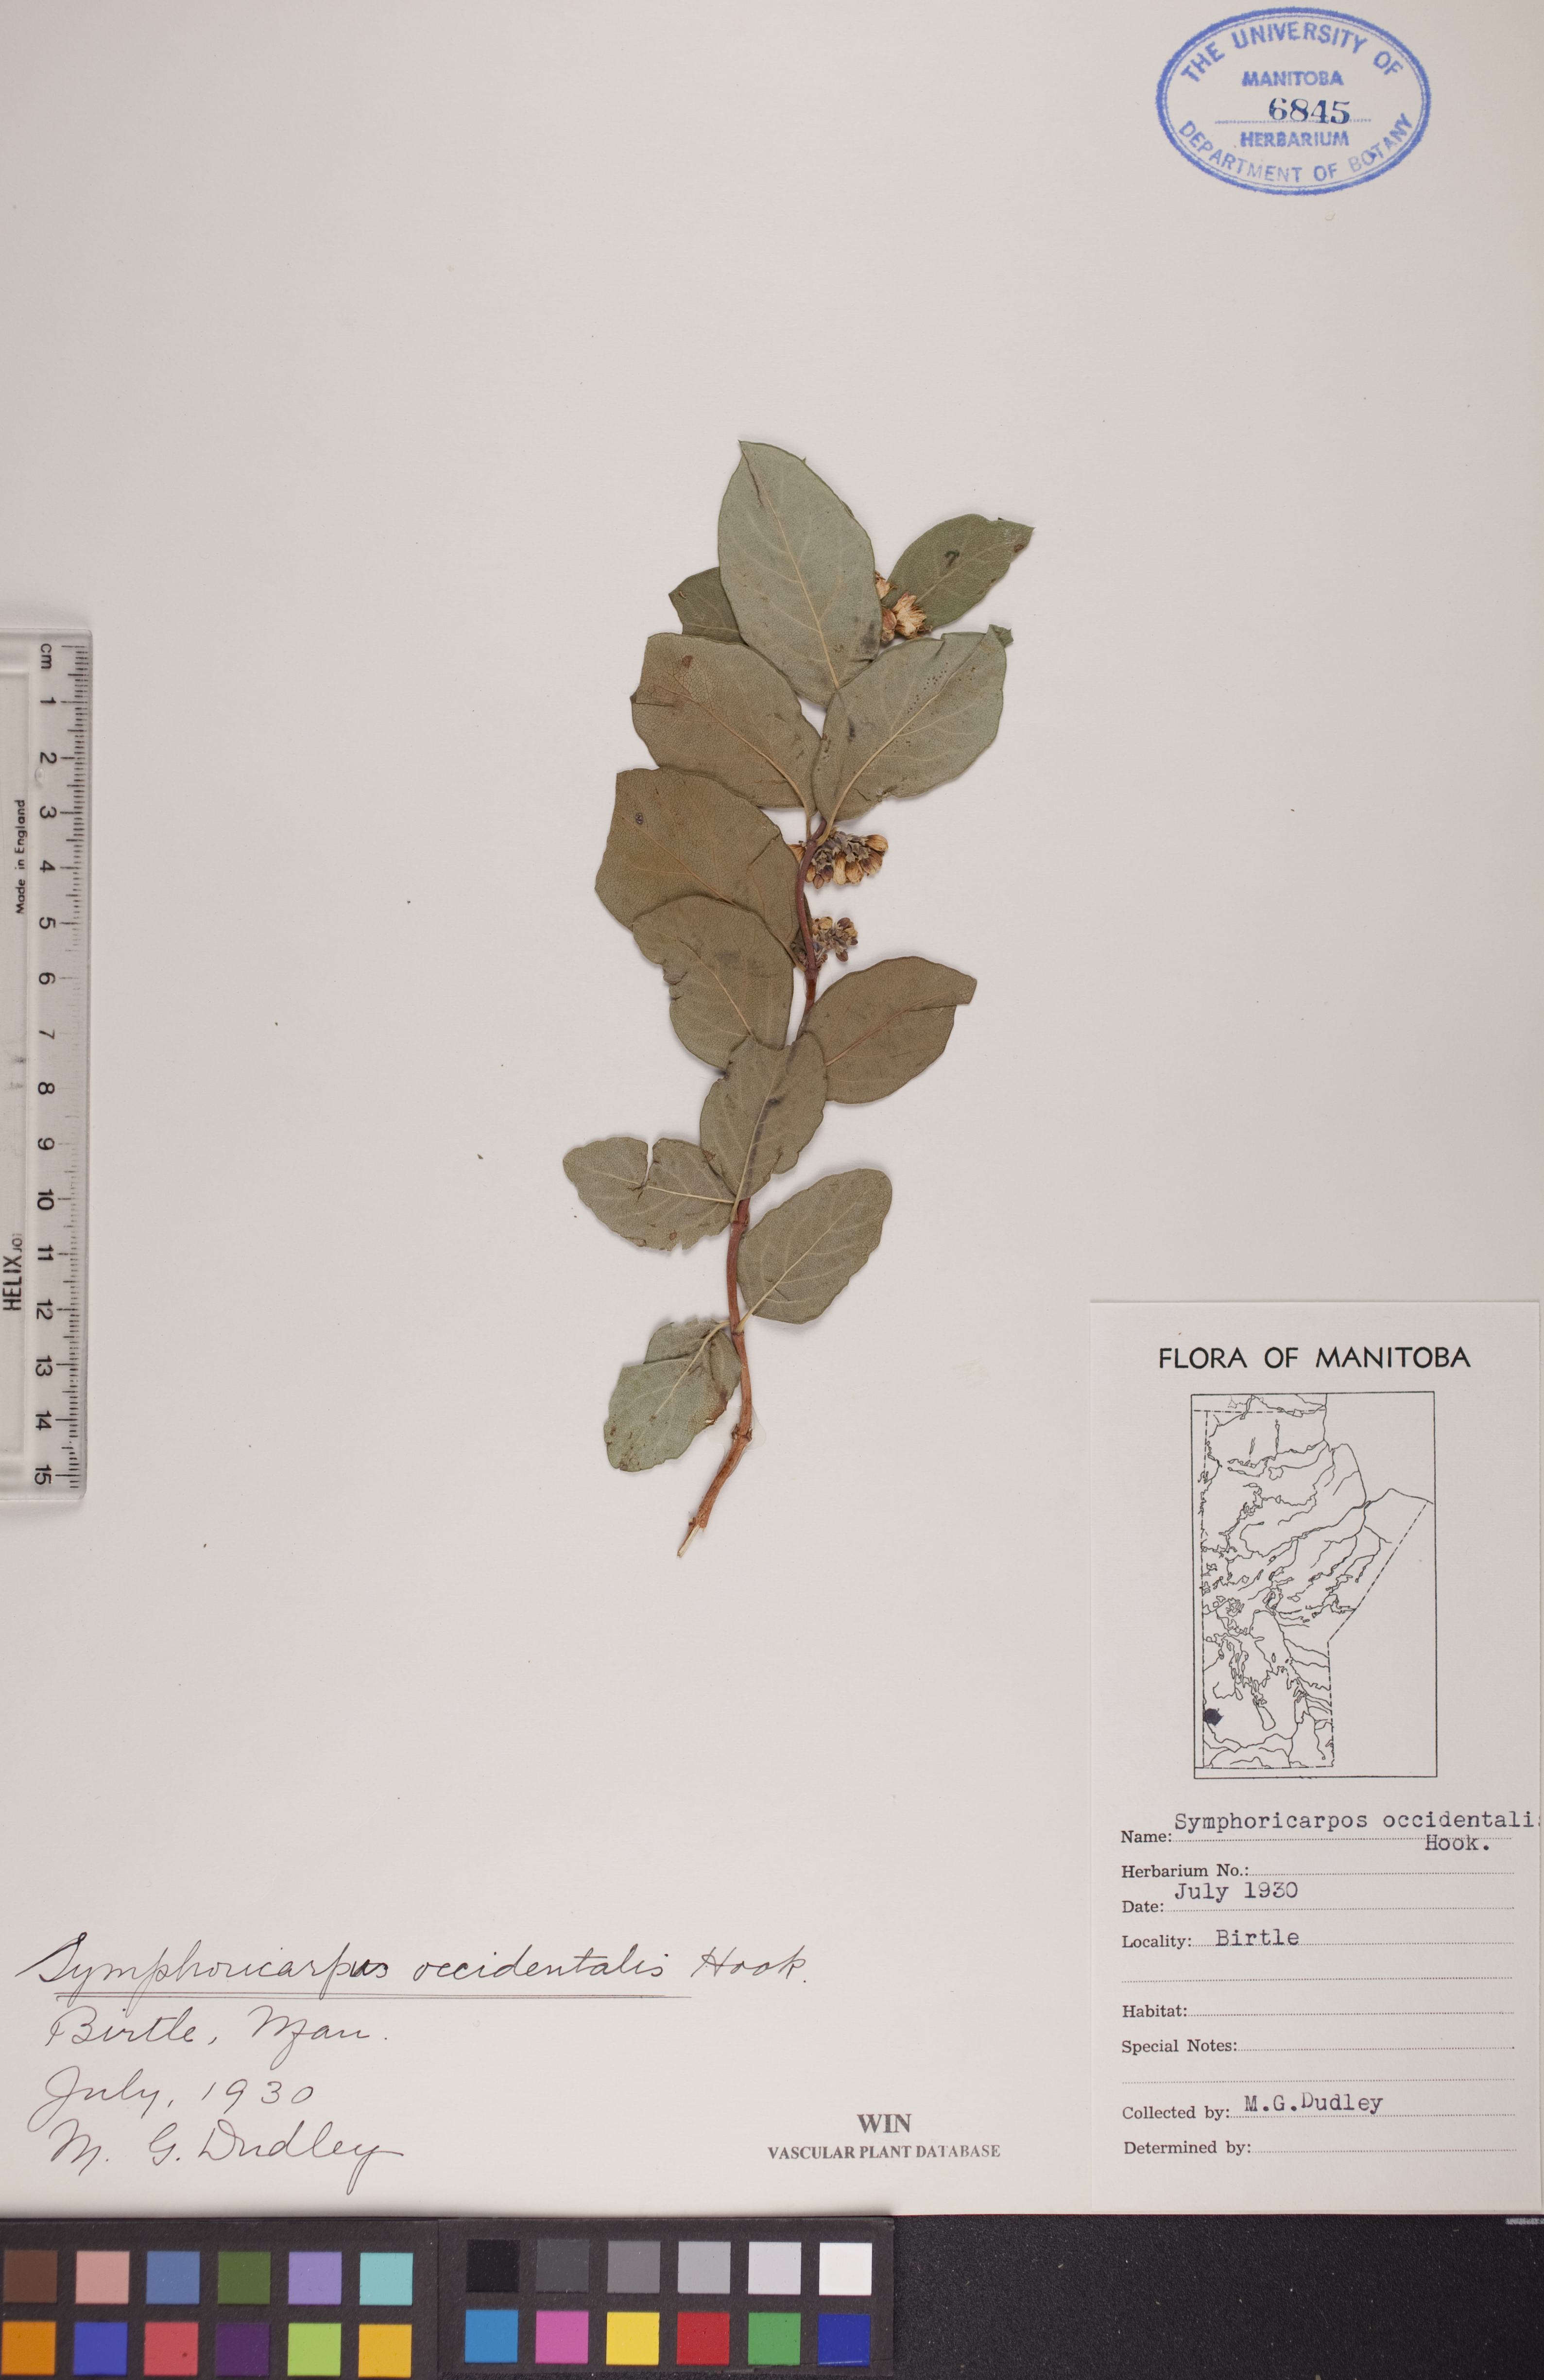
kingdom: Plantae
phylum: Tracheophyta
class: Magnoliopsida
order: Dipsacales
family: Caprifoliaceae
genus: Symphoricarpos
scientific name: Symphoricarpos occidentalis
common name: Wolfberry
